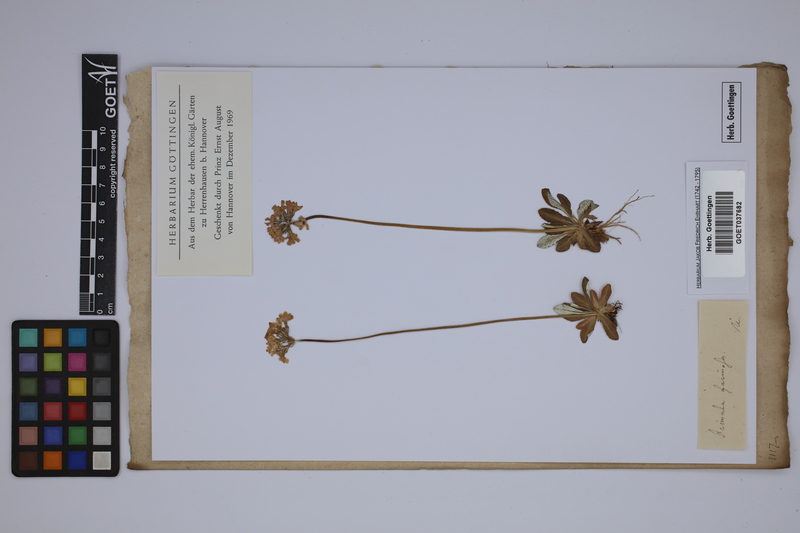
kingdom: Plantae
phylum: Tracheophyta
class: Magnoliopsida
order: Ericales
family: Primulaceae
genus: Primula
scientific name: Primula farinosa
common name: Bird's-eye primrose
